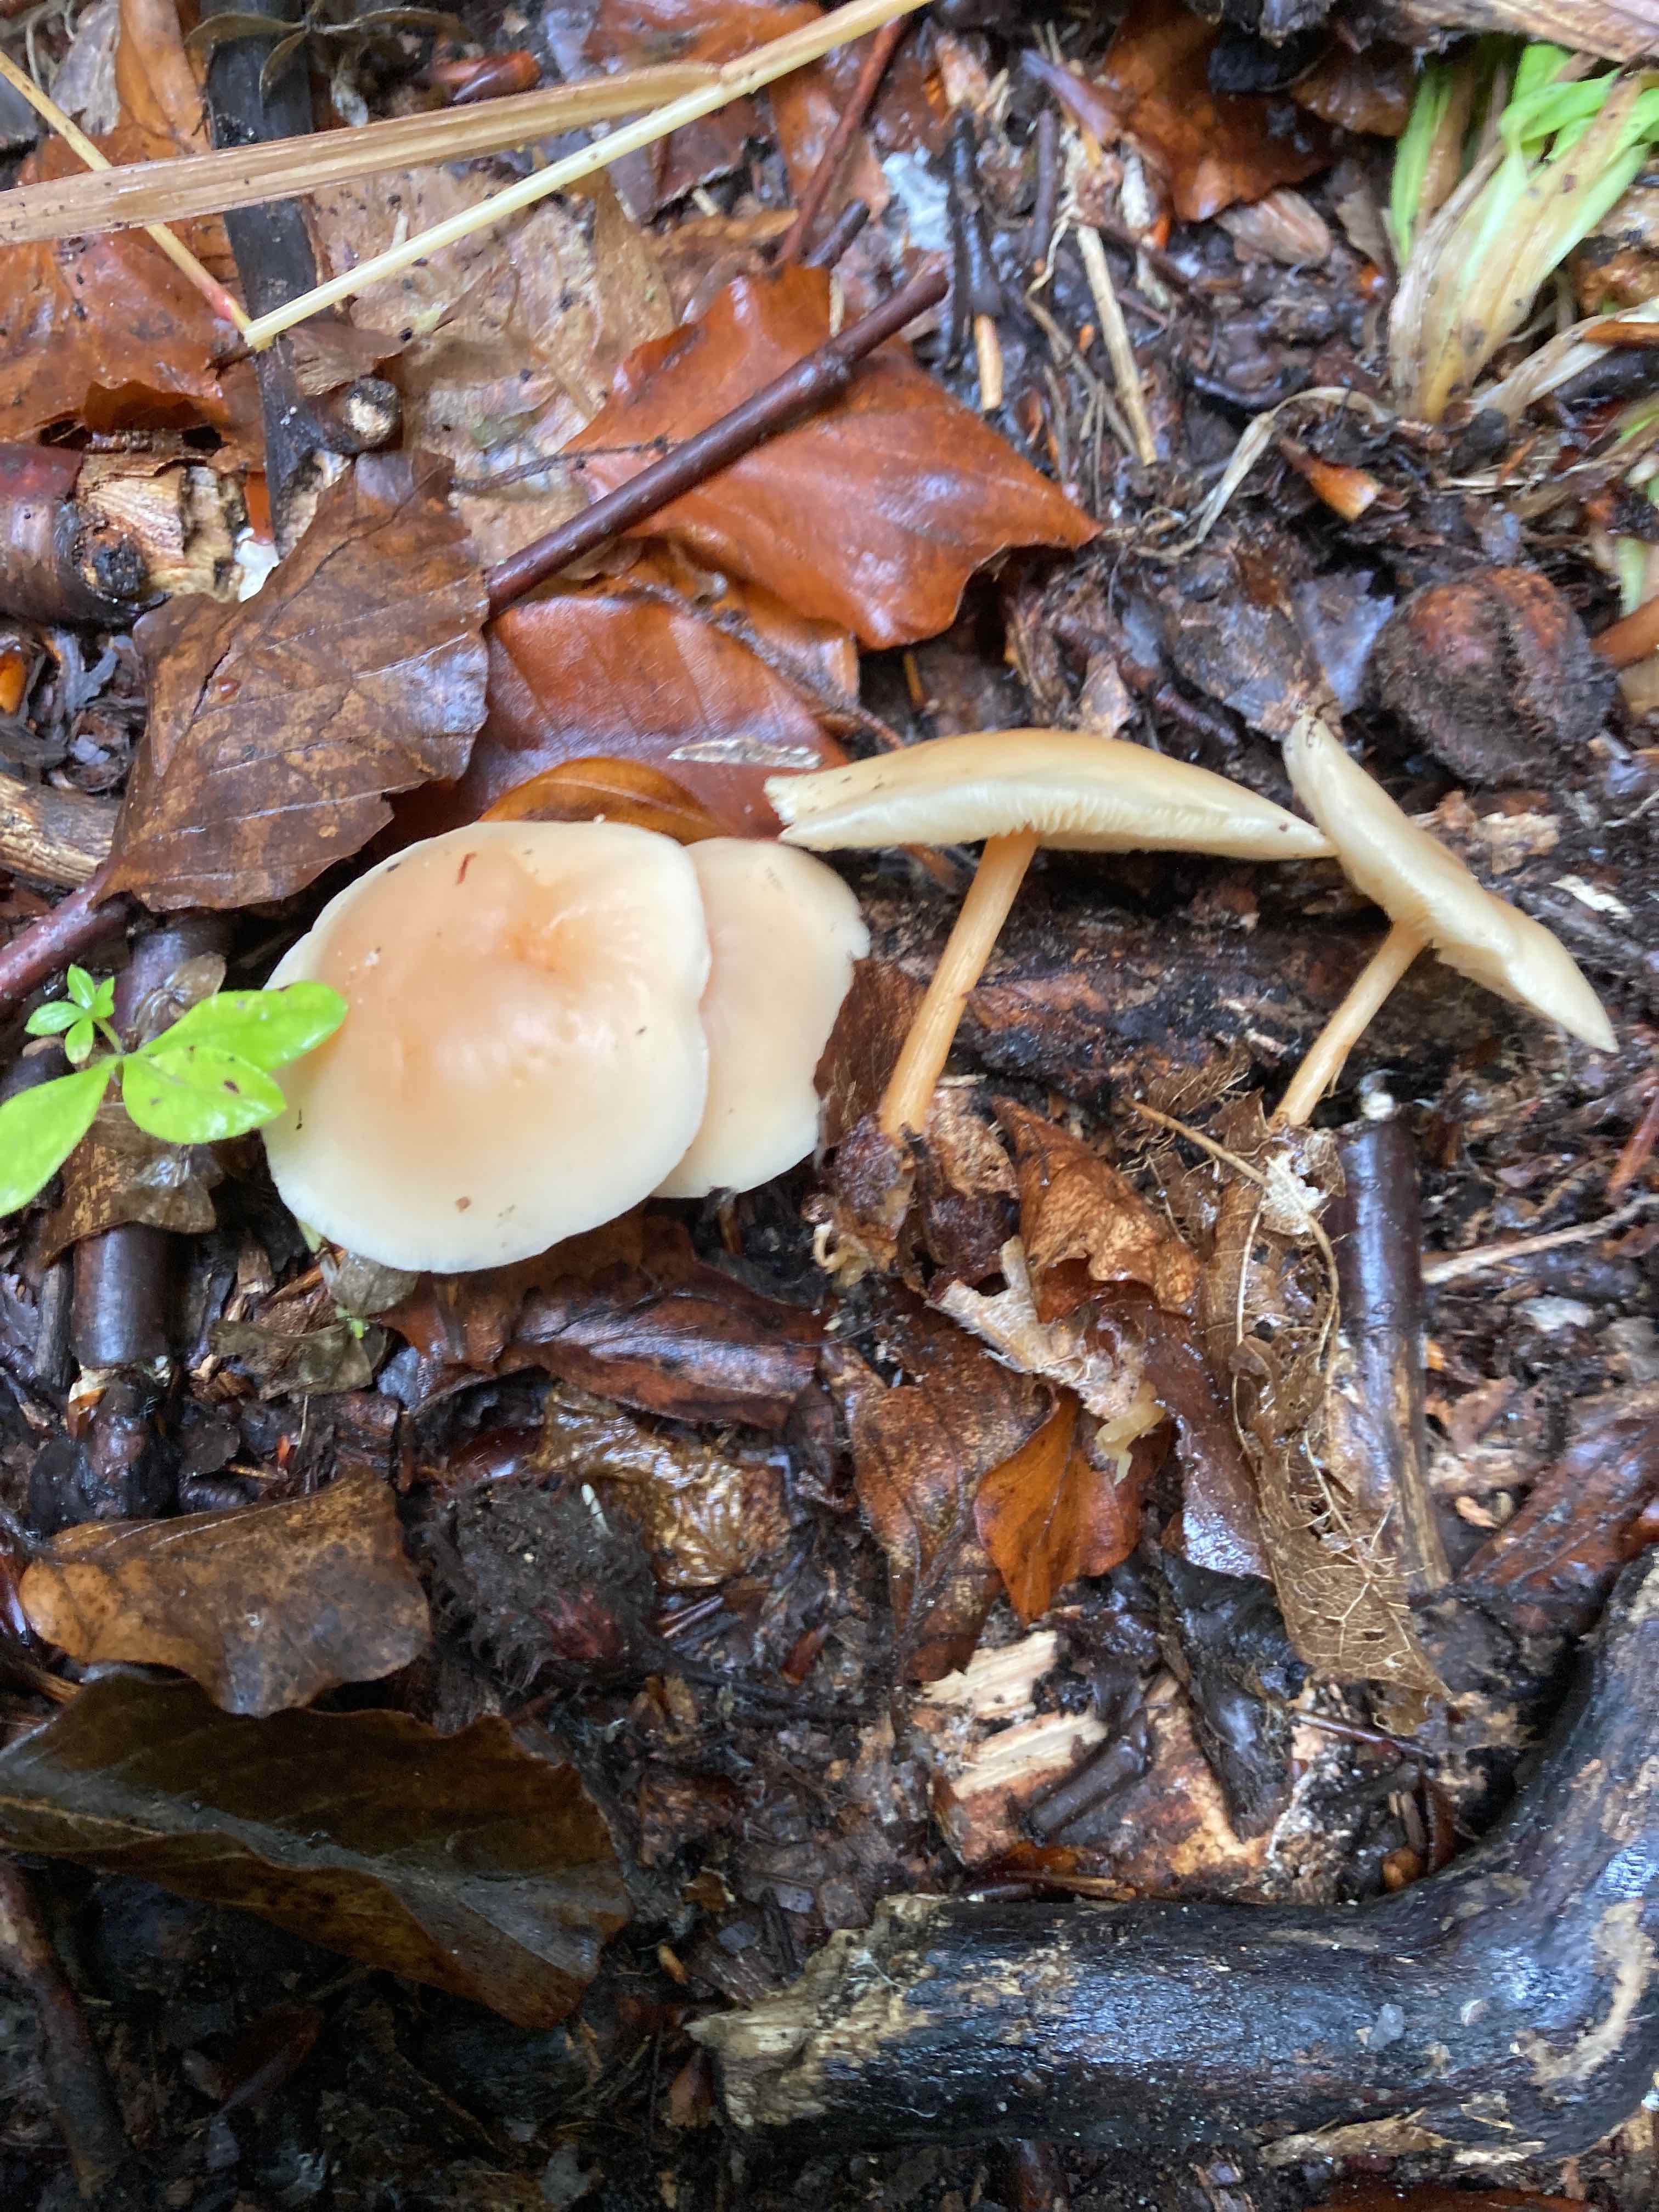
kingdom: Fungi
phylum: Basidiomycota
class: Agaricomycetes
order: Agaricales
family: Omphalotaceae
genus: Gymnopus
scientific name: Gymnopus dryophilus
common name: løv-fladhat
